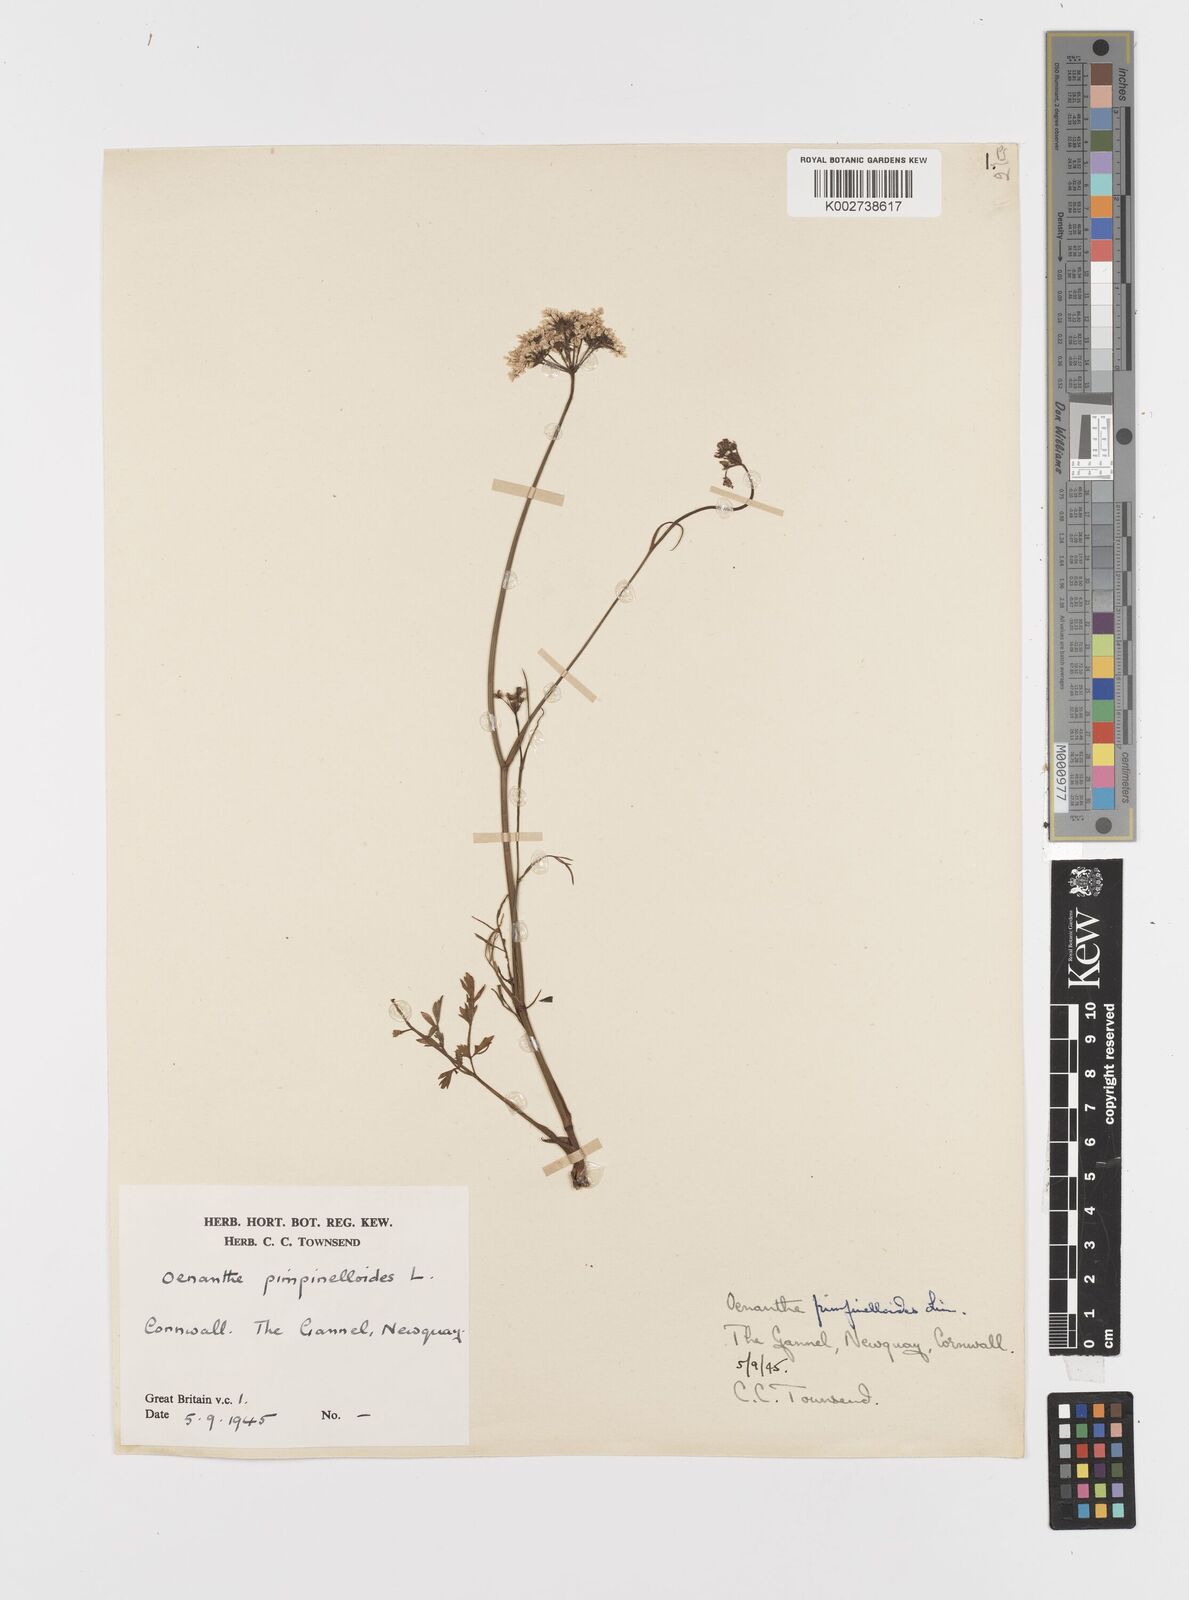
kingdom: Plantae
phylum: Tracheophyta
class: Magnoliopsida
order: Apiales
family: Apiaceae
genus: Oenanthe
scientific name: Oenanthe pimpinelloides
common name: Corky-fruited water-dropwort
